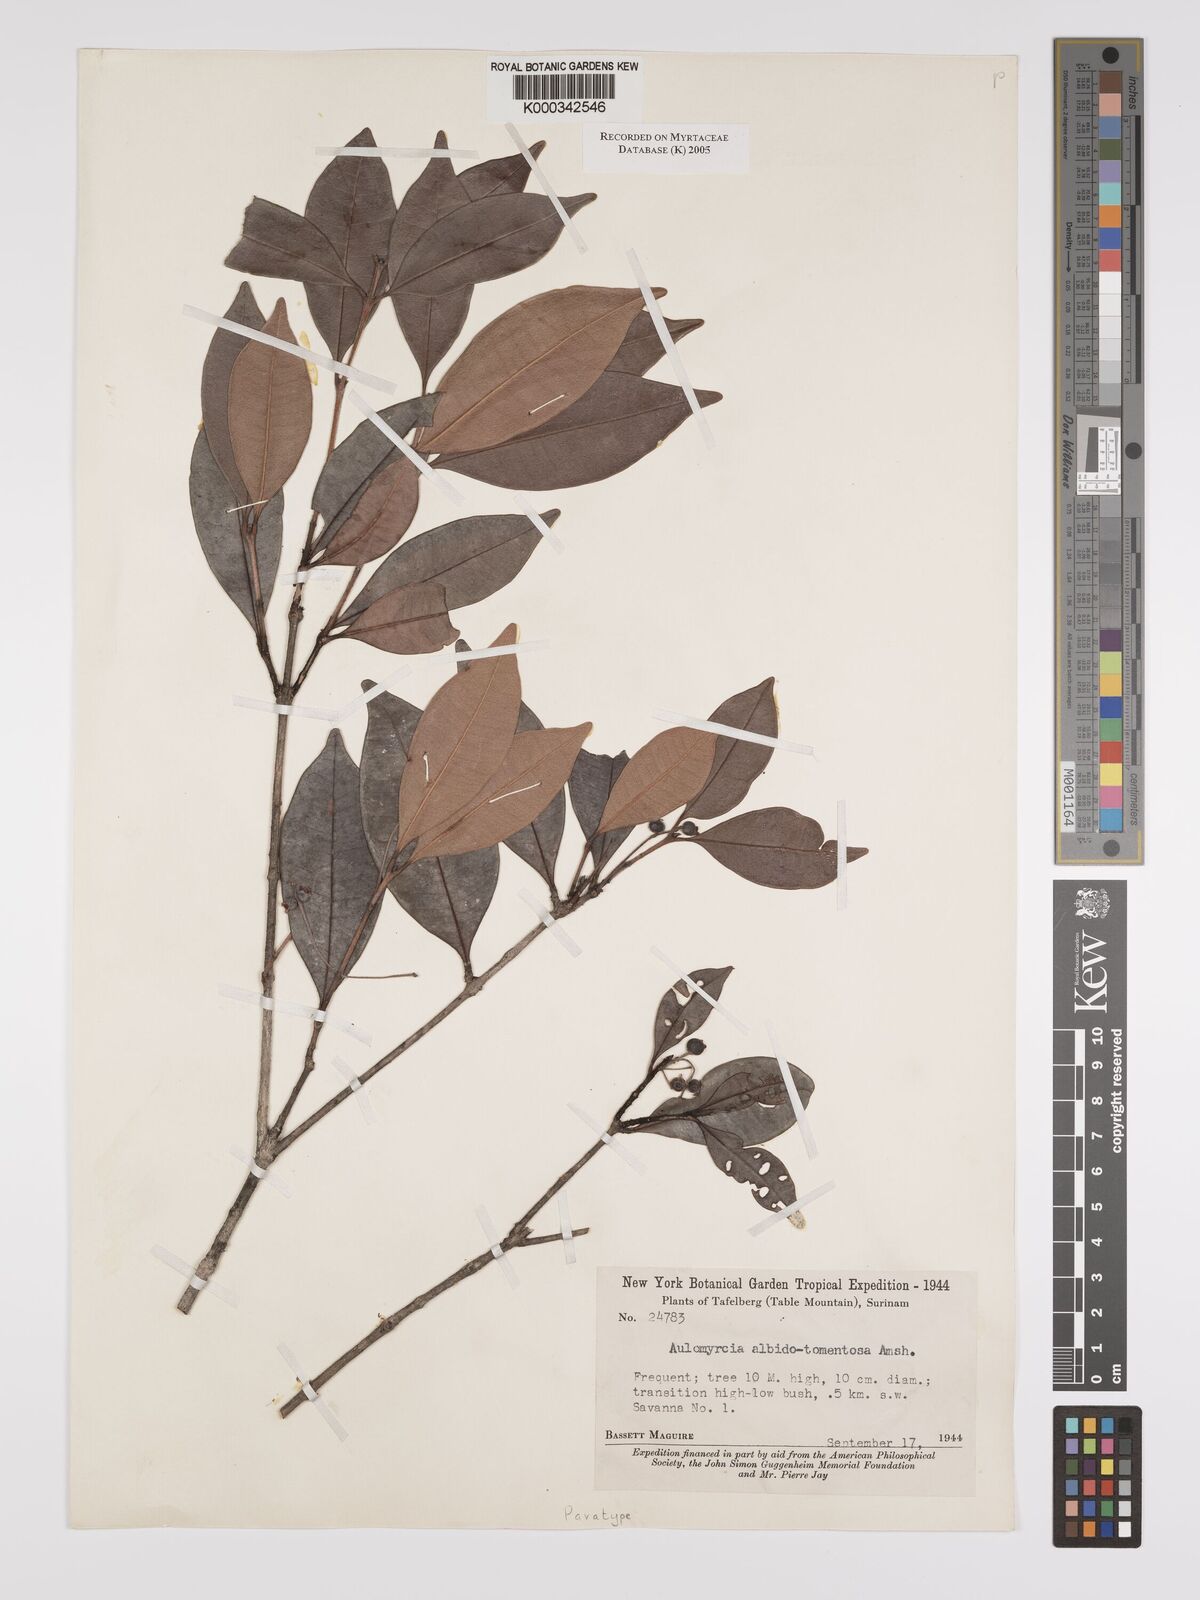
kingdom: Plantae
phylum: Tracheophyta
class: Magnoliopsida
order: Myrtales
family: Myrtaceae
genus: Myrcia
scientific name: Myrcia albidotomentosa
